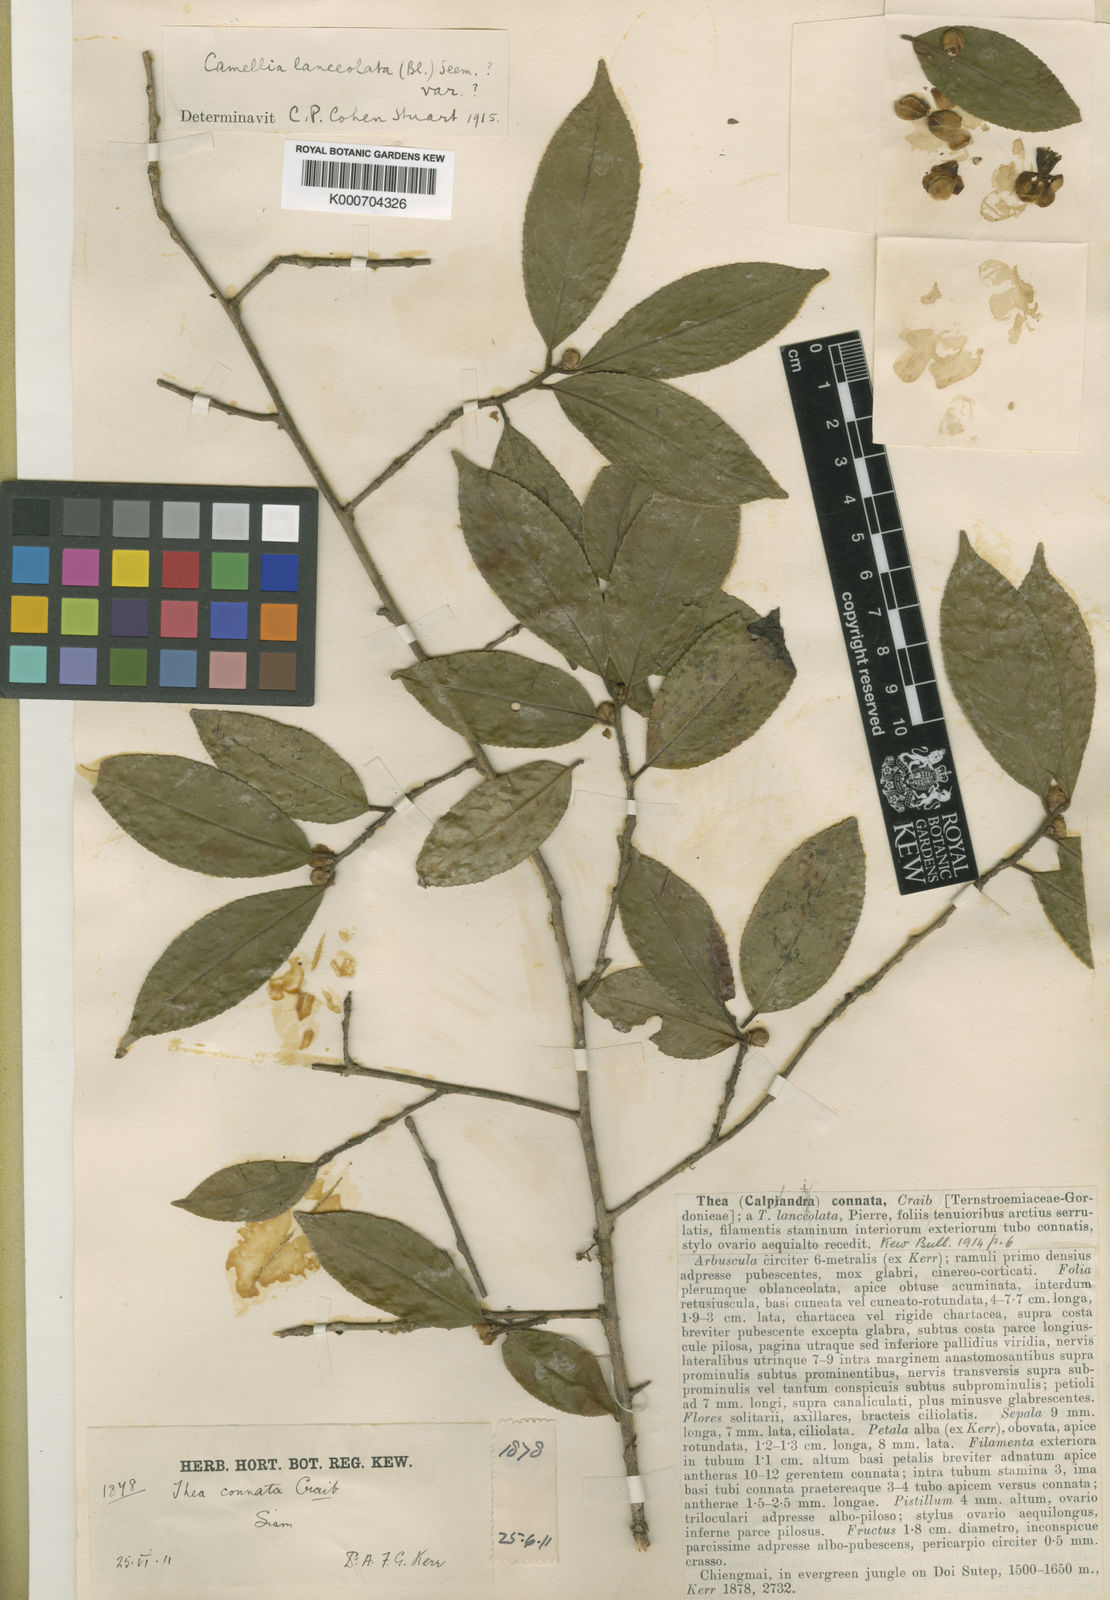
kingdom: Plantae
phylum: Tracheophyta
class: Magnoliopsida
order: Ericales
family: Theaceae
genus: Camellia
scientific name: Camellia connata
